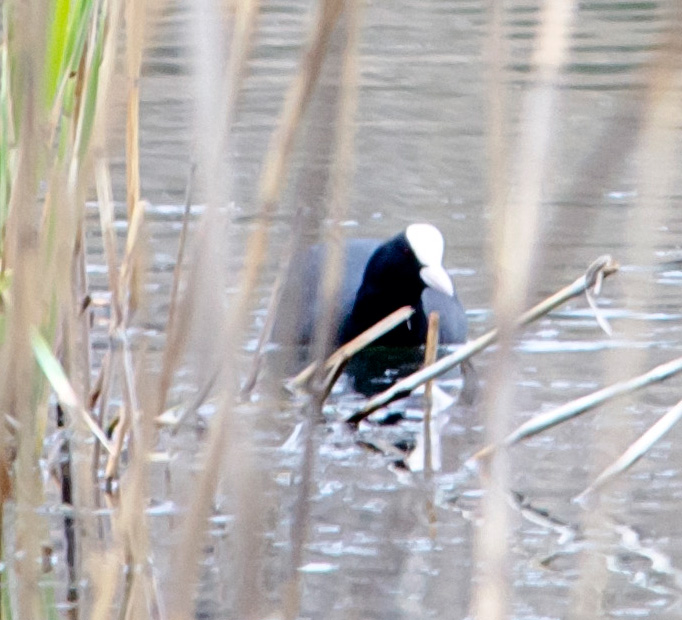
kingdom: Animalia
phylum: Chordata
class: Aves
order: Gruiformes
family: Rallidae
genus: Fulica
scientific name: Fulica atra
